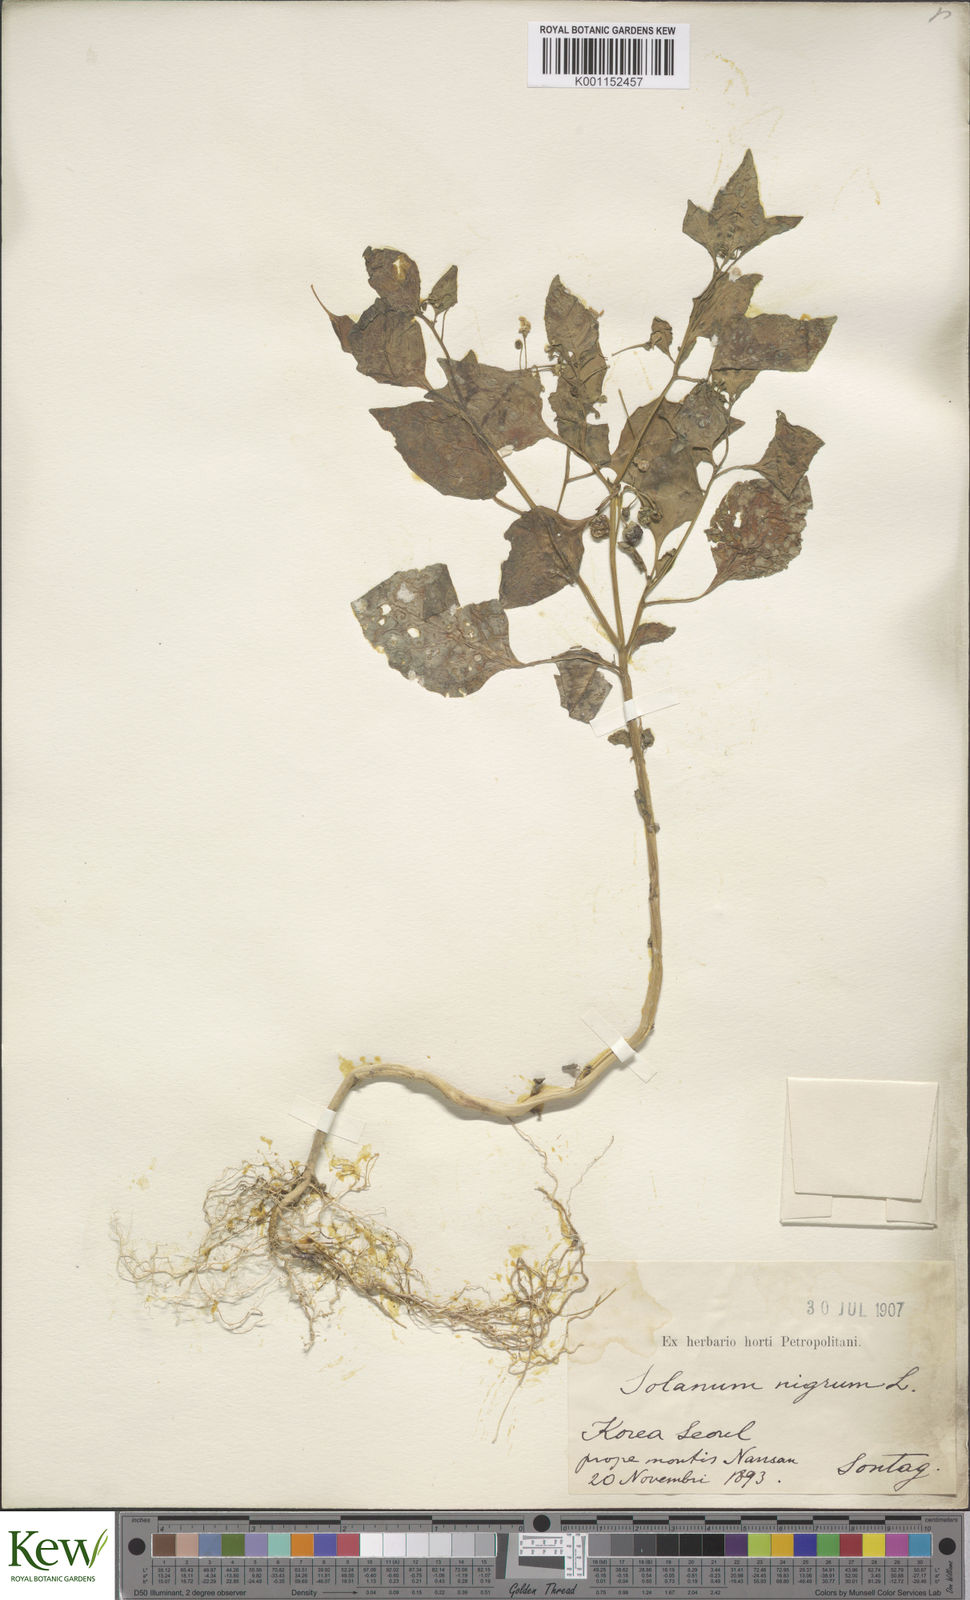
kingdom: Plantae
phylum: Tracheophyta
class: Magnoliopsida
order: Solanales
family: Solanaceae
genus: Solanum
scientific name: Solanum nigrum
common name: Black nightshade
